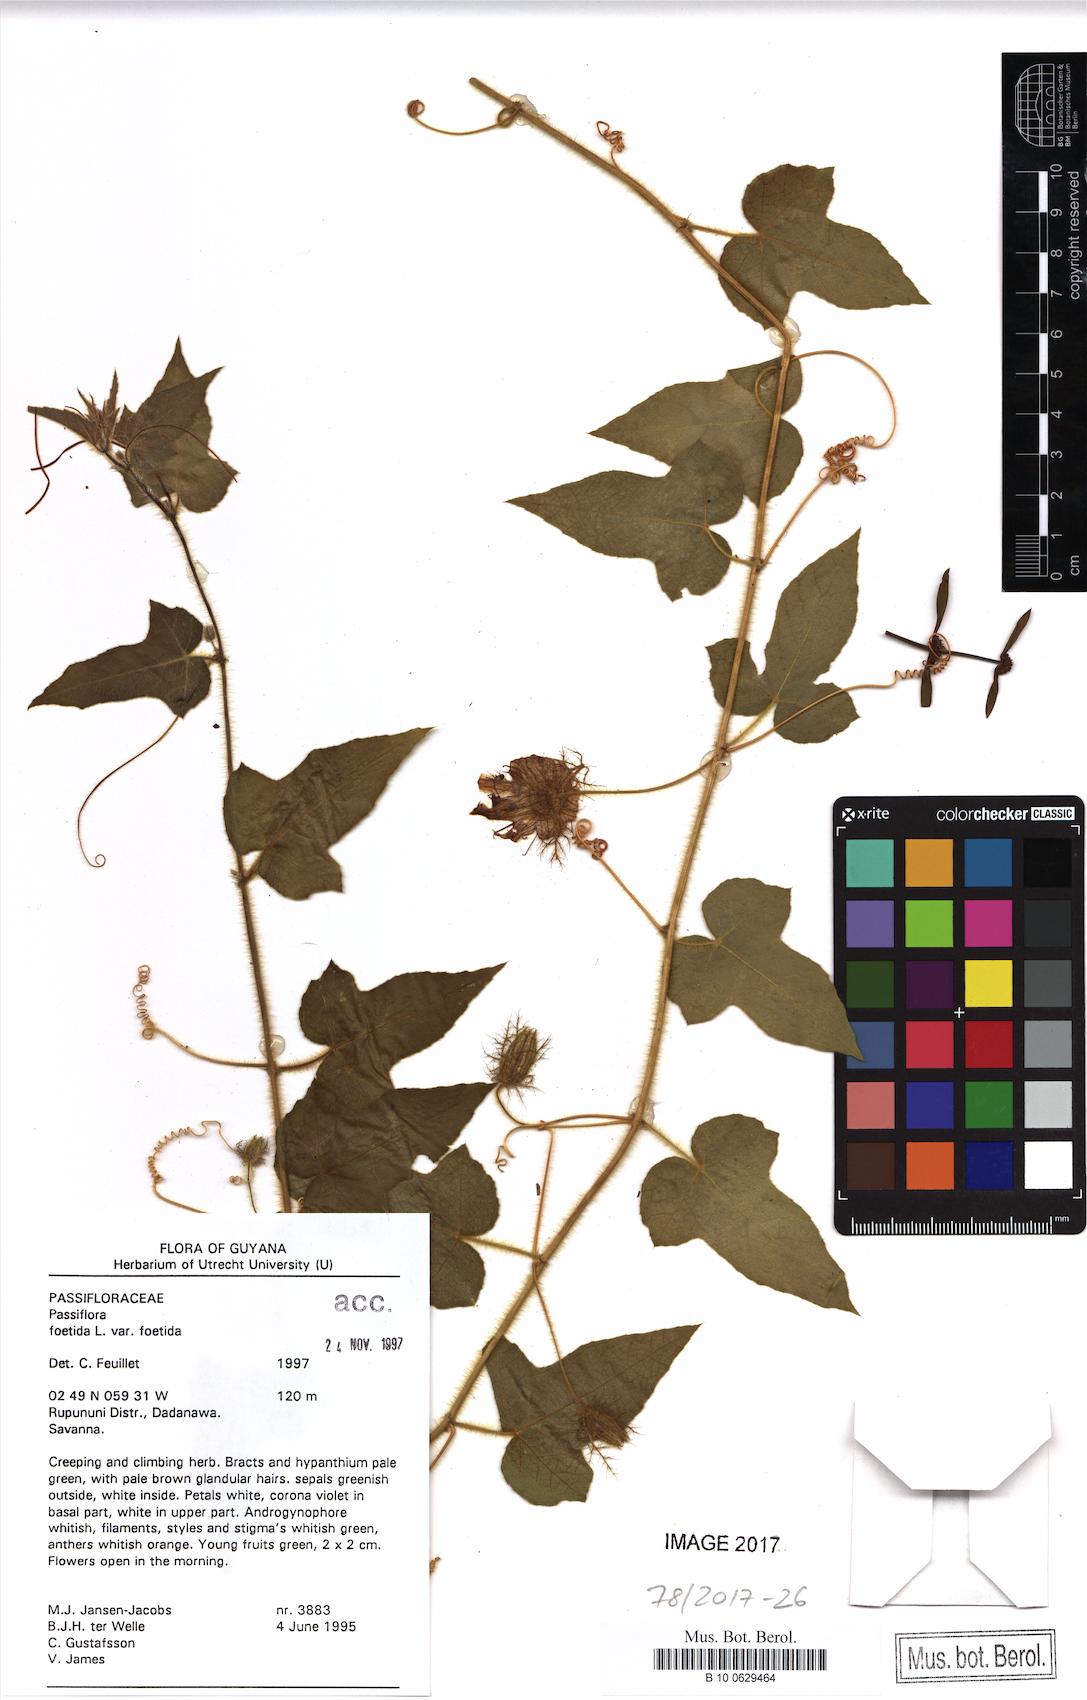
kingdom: Plantae
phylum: Tracheophyta
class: Magnoliopsida
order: Malpighiales
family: Passifloraceae
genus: Passiflora
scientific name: Passiflora foetida
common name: Fetid passionflower
